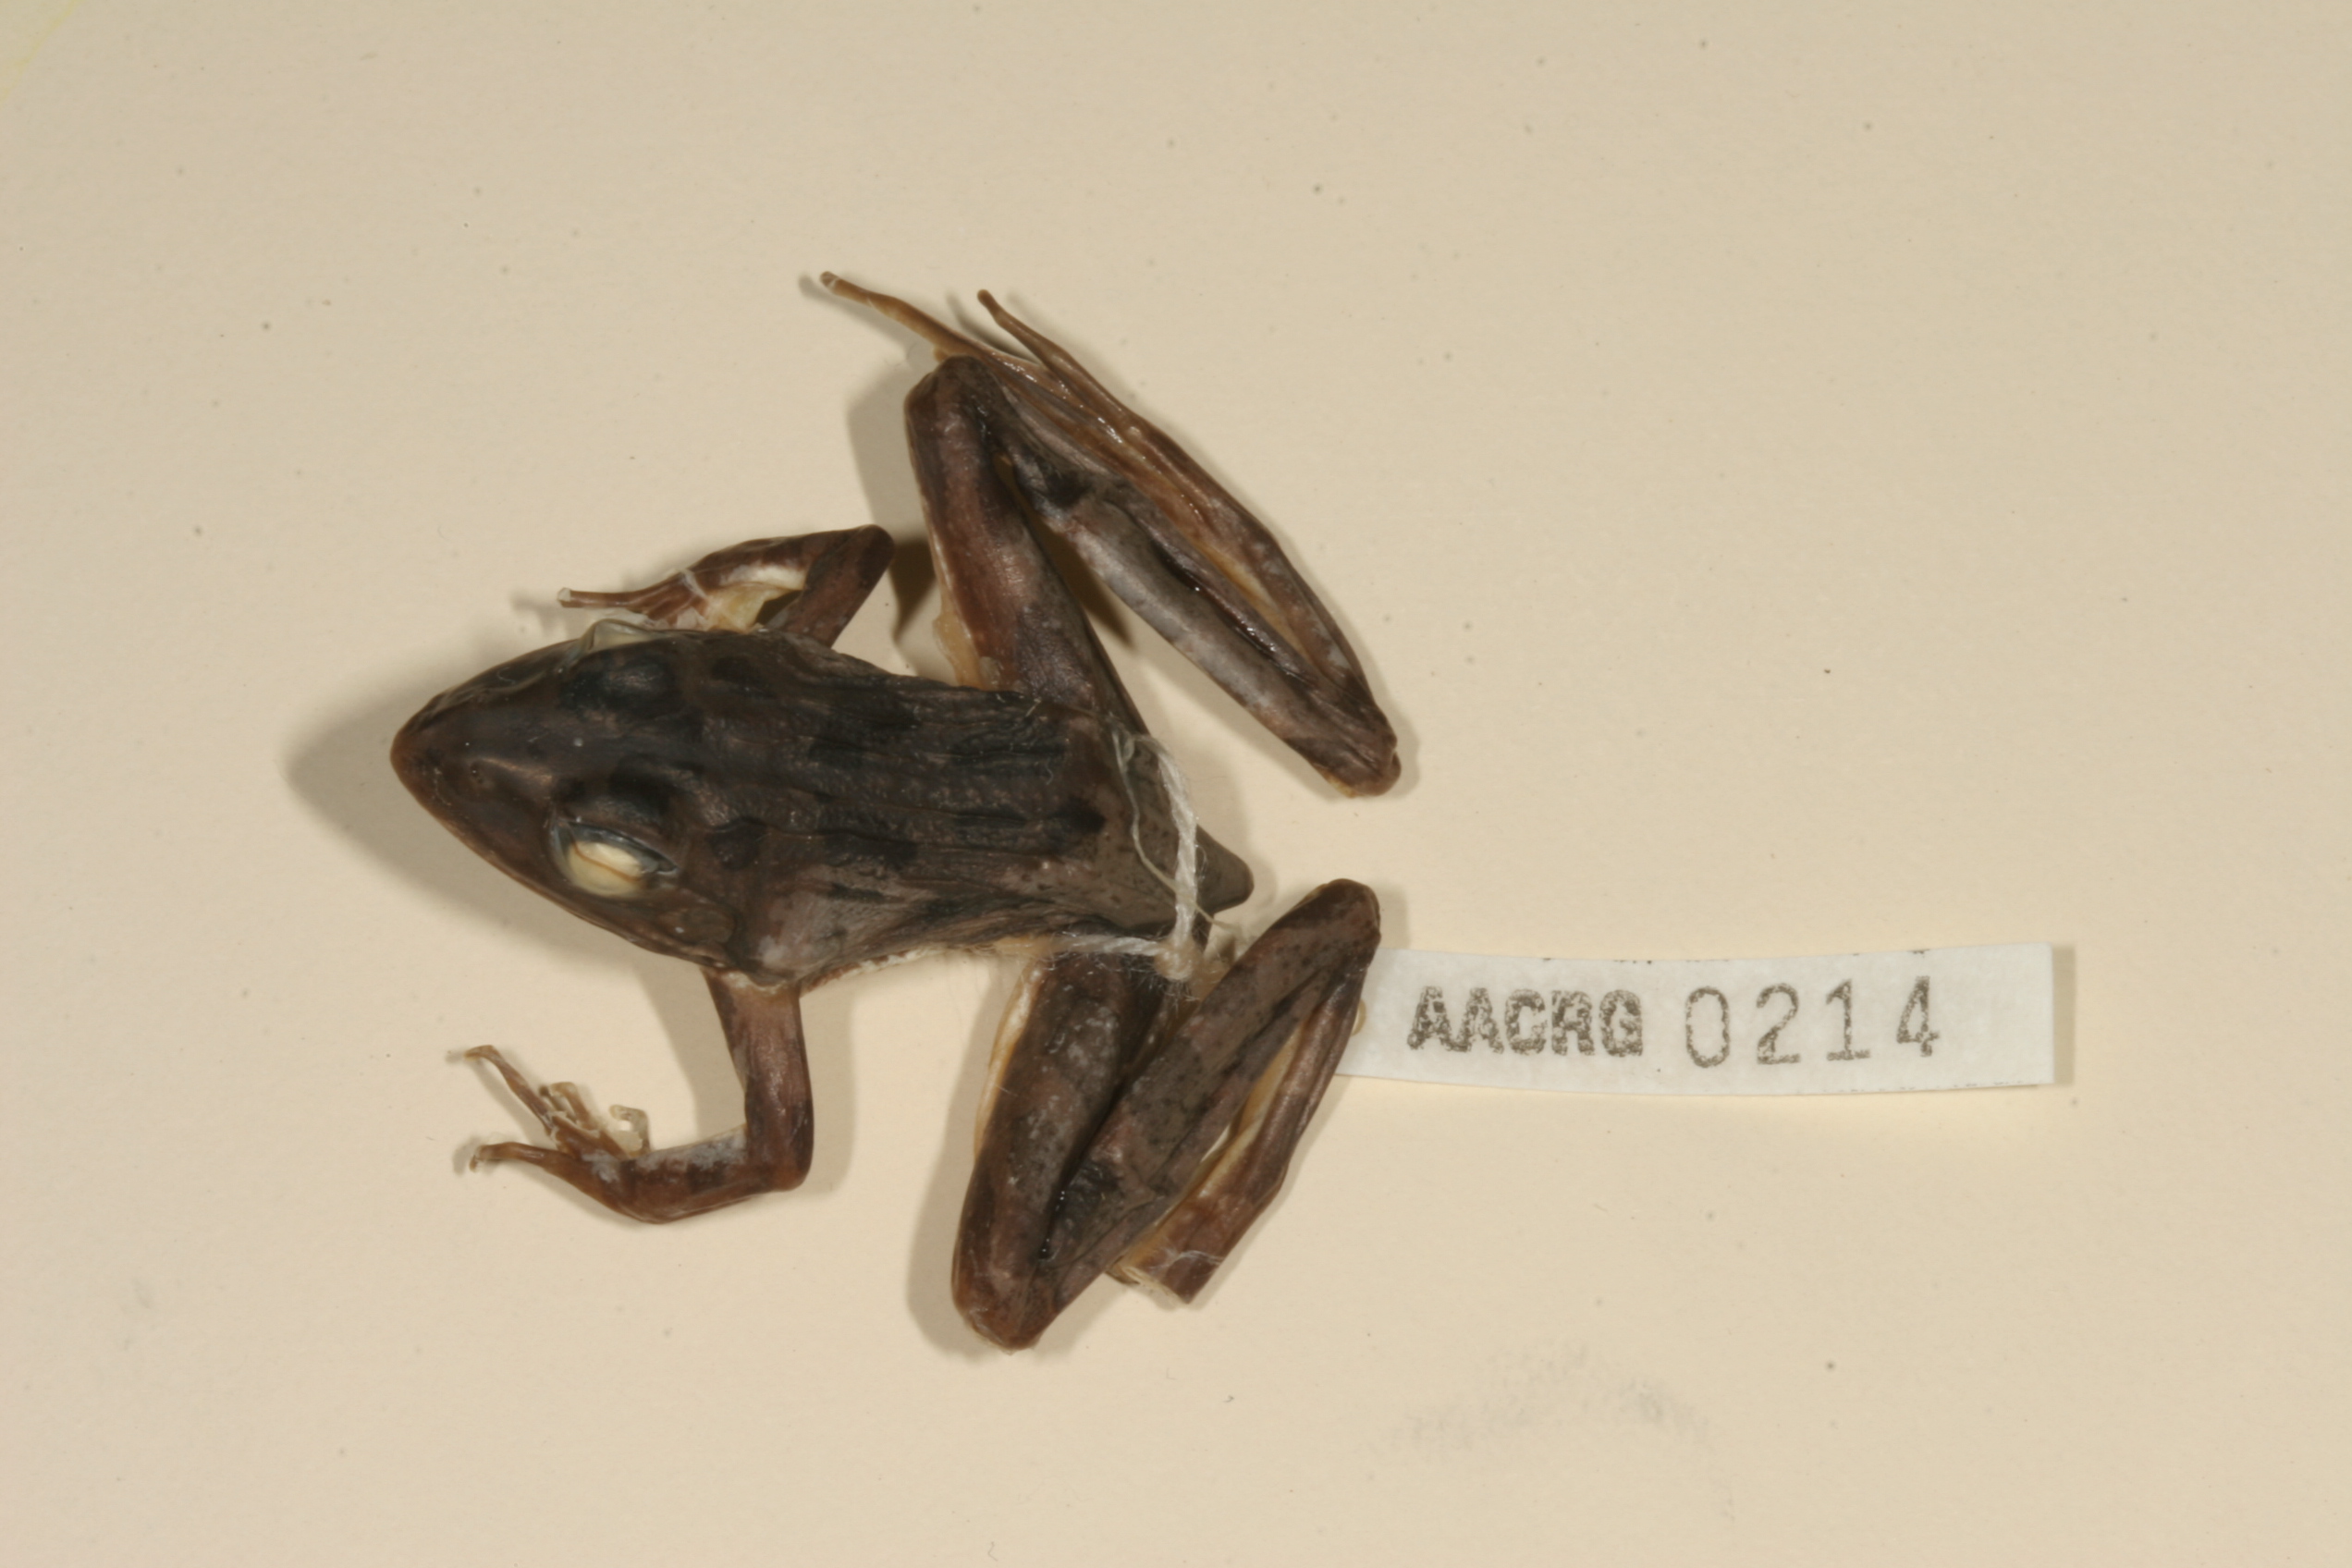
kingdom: Animalia
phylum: Chordata
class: Amphibia
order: Anura
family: Pyxicephalidae
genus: Amietia
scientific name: Amietia angolensis
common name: Dusky-throated frog
